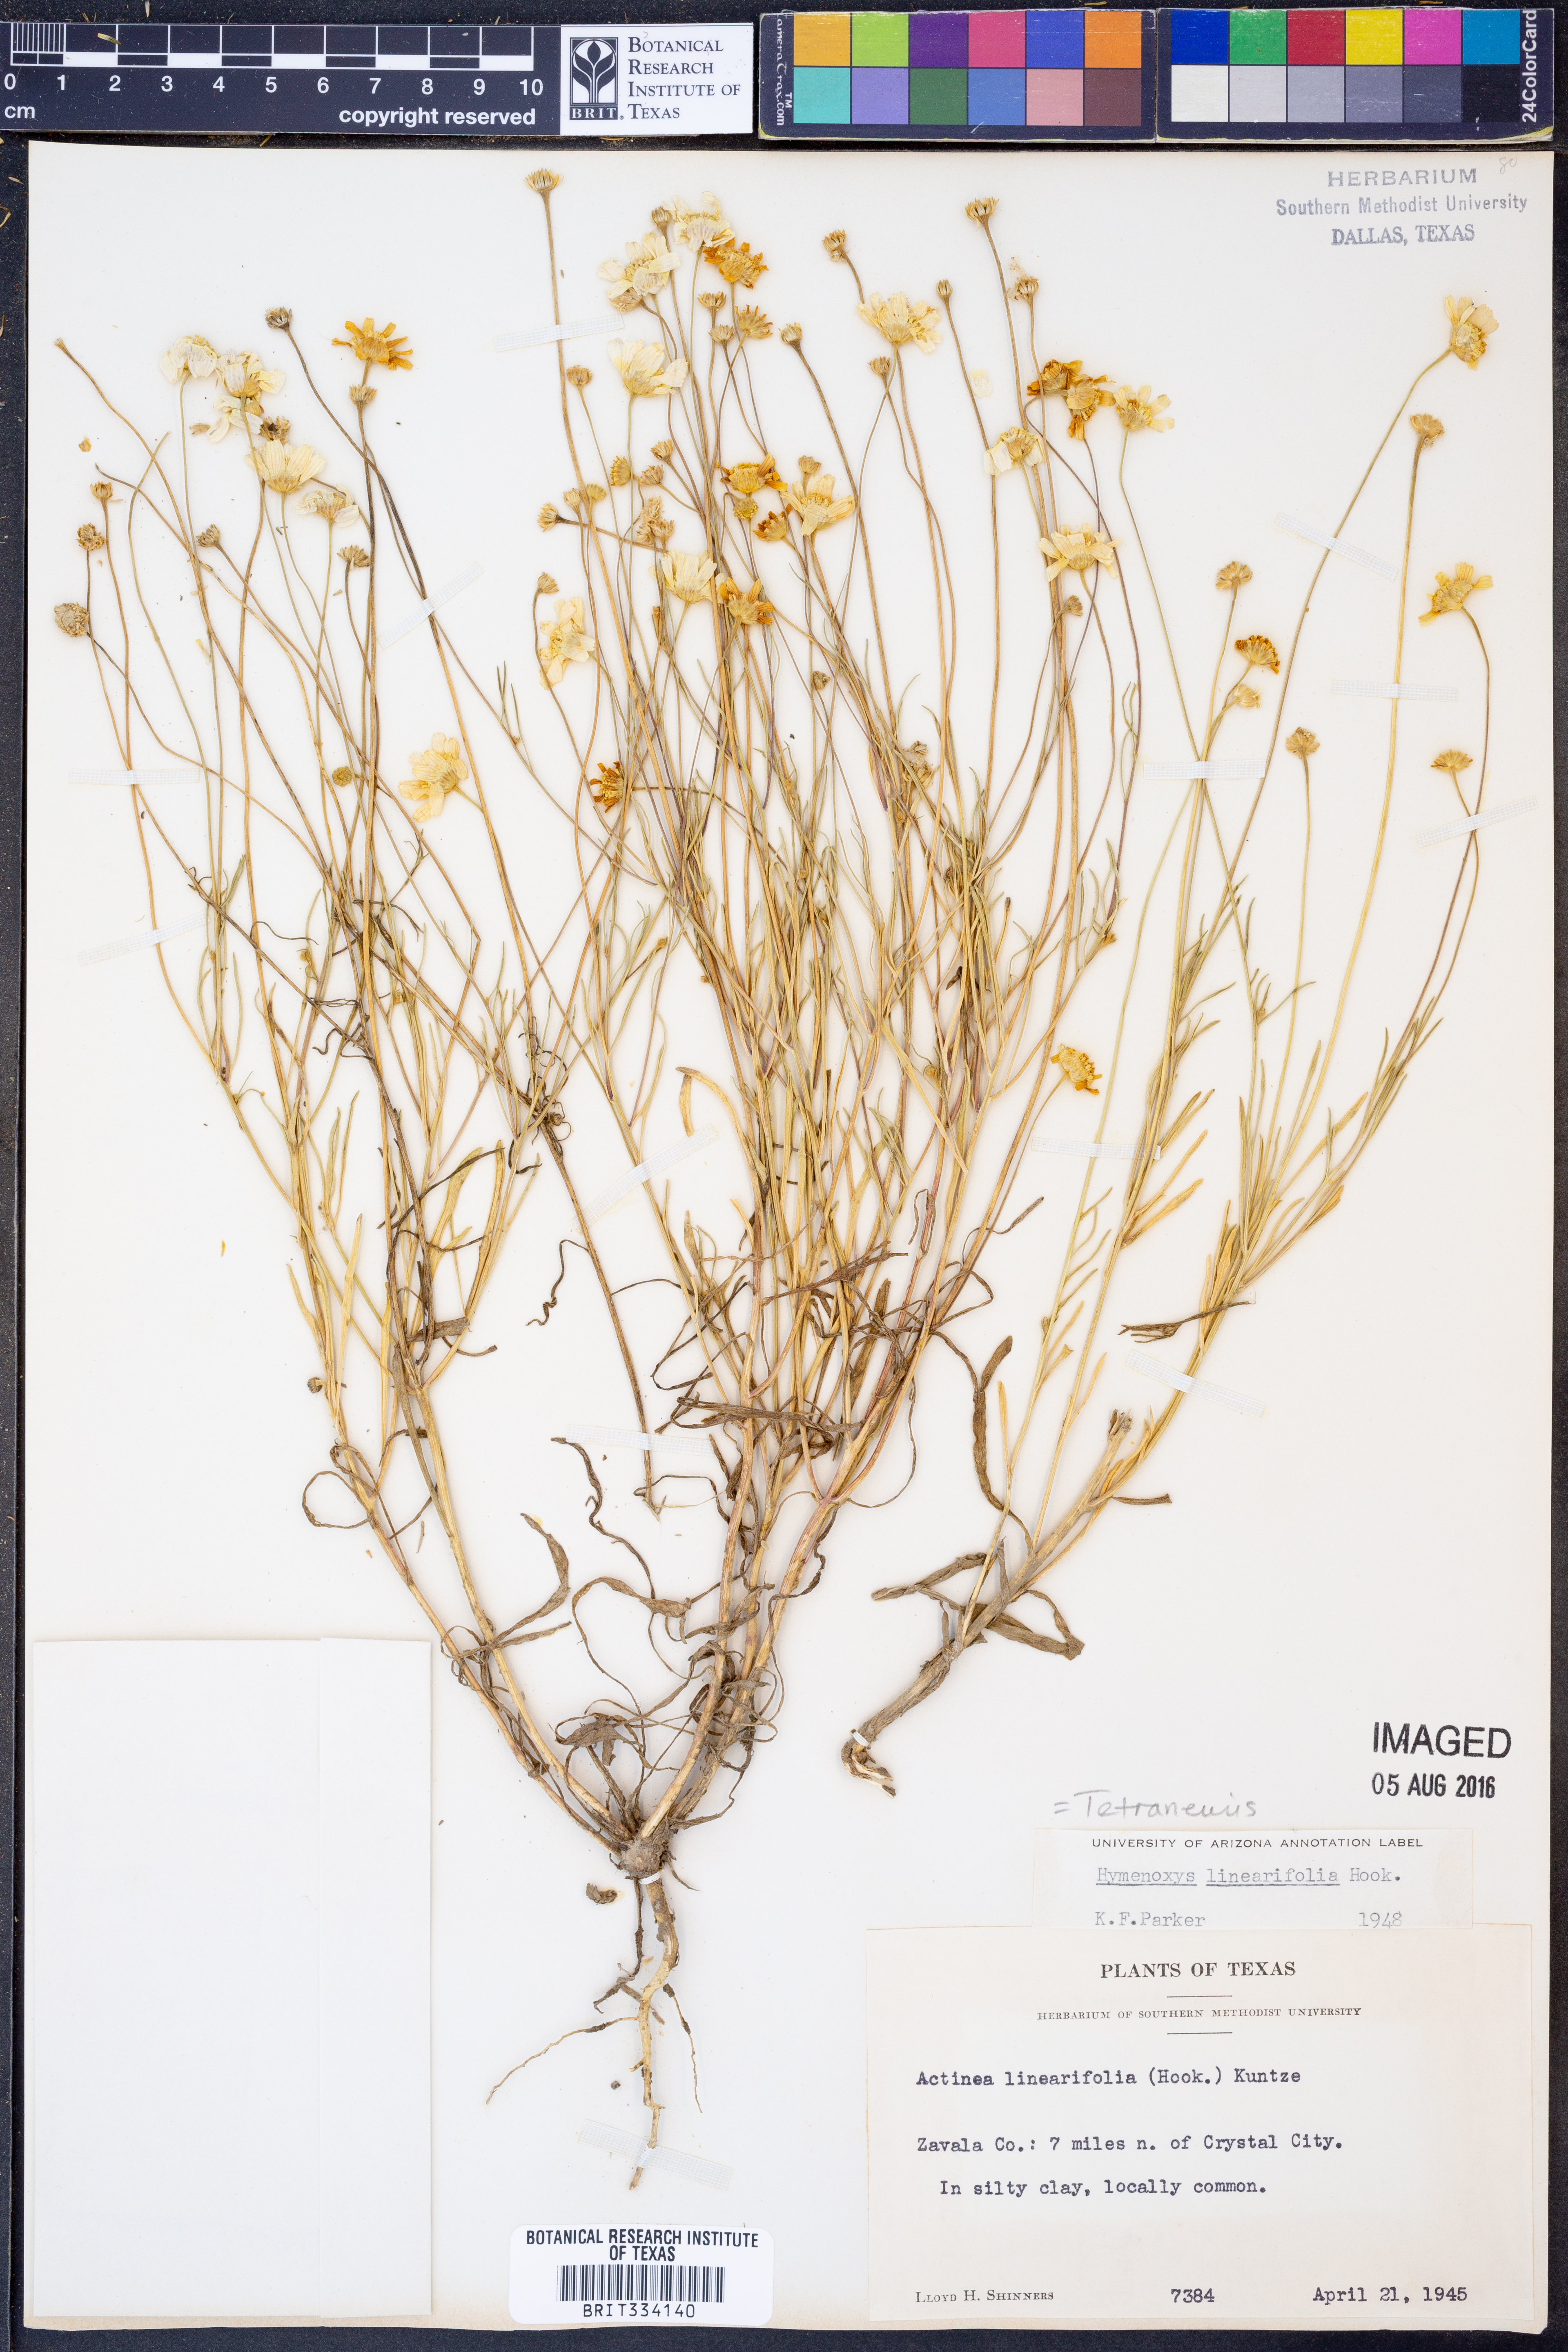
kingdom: Plantae
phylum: Tracheophyta
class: Magnoliopsida
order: Asterales
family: Asteraceae
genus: Tetraneuris
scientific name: Tetraneuris linearifolia
